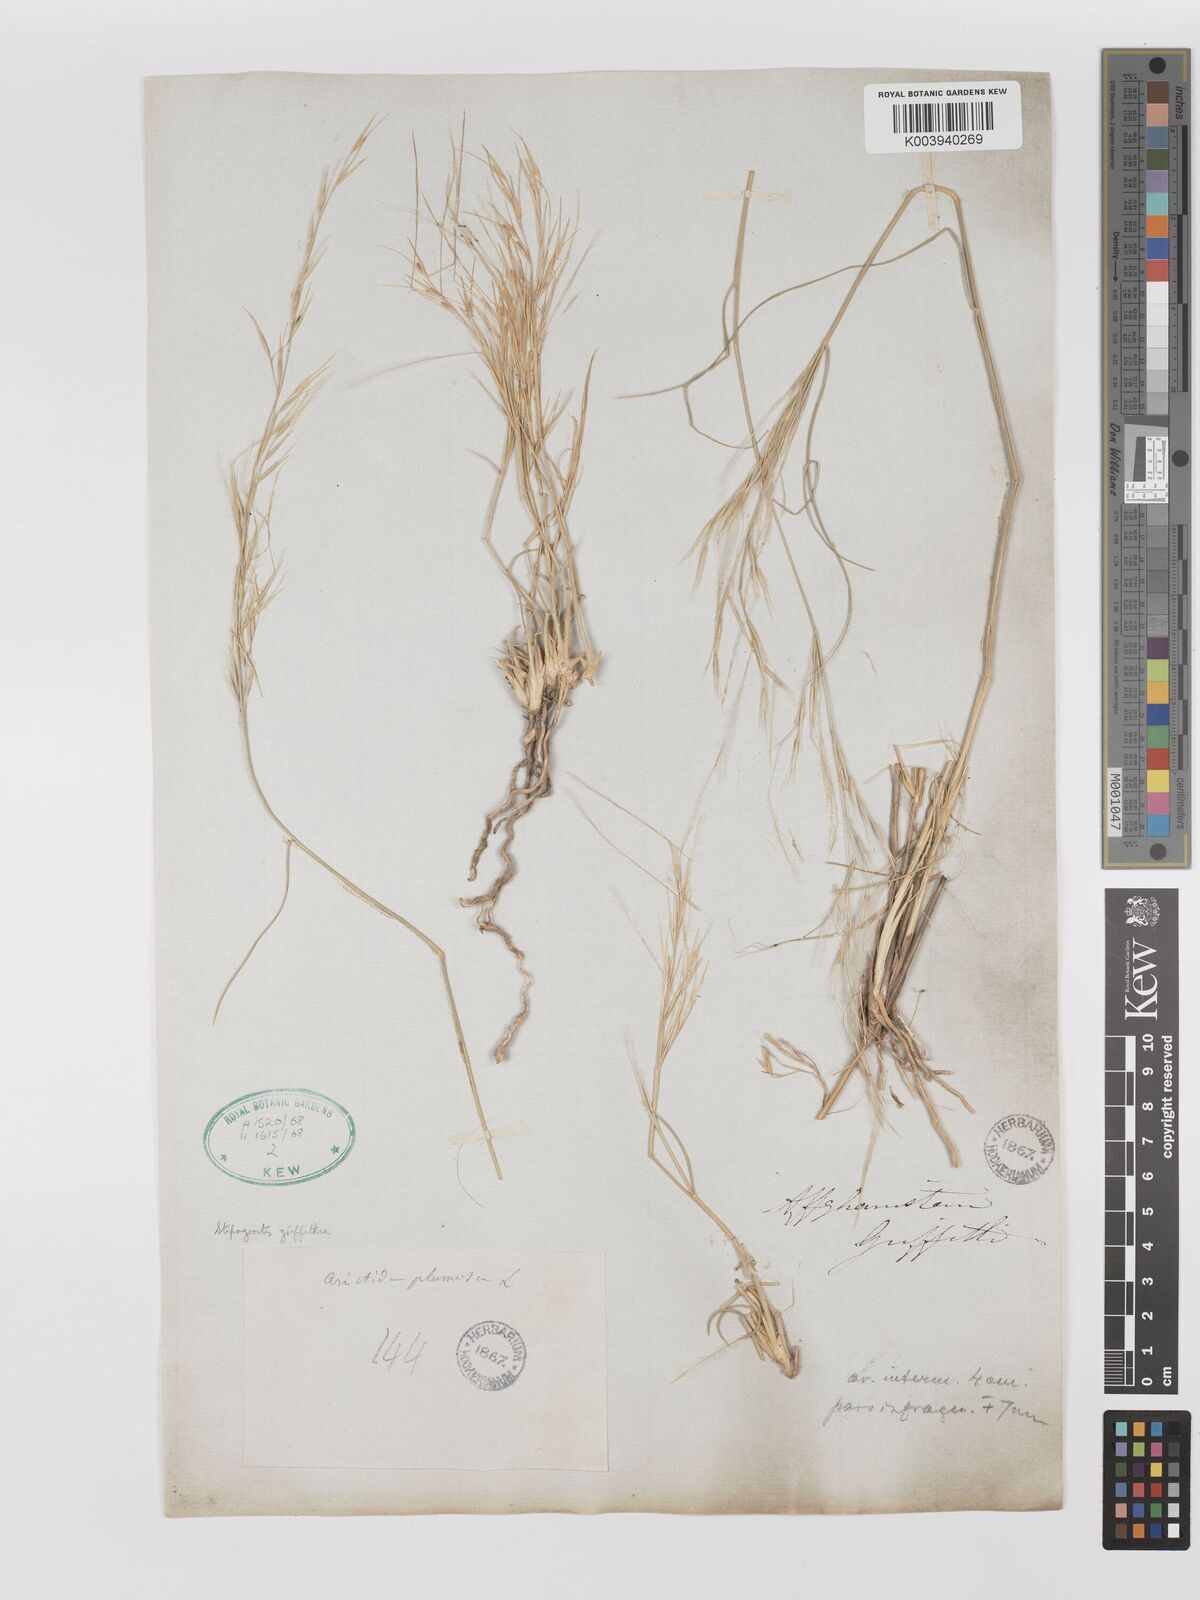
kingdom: Plantae
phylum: Tracheophyta
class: Liliopsida
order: Poales
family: Poaceae
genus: Stipagrostis
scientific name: Stipagrostis griffithii
